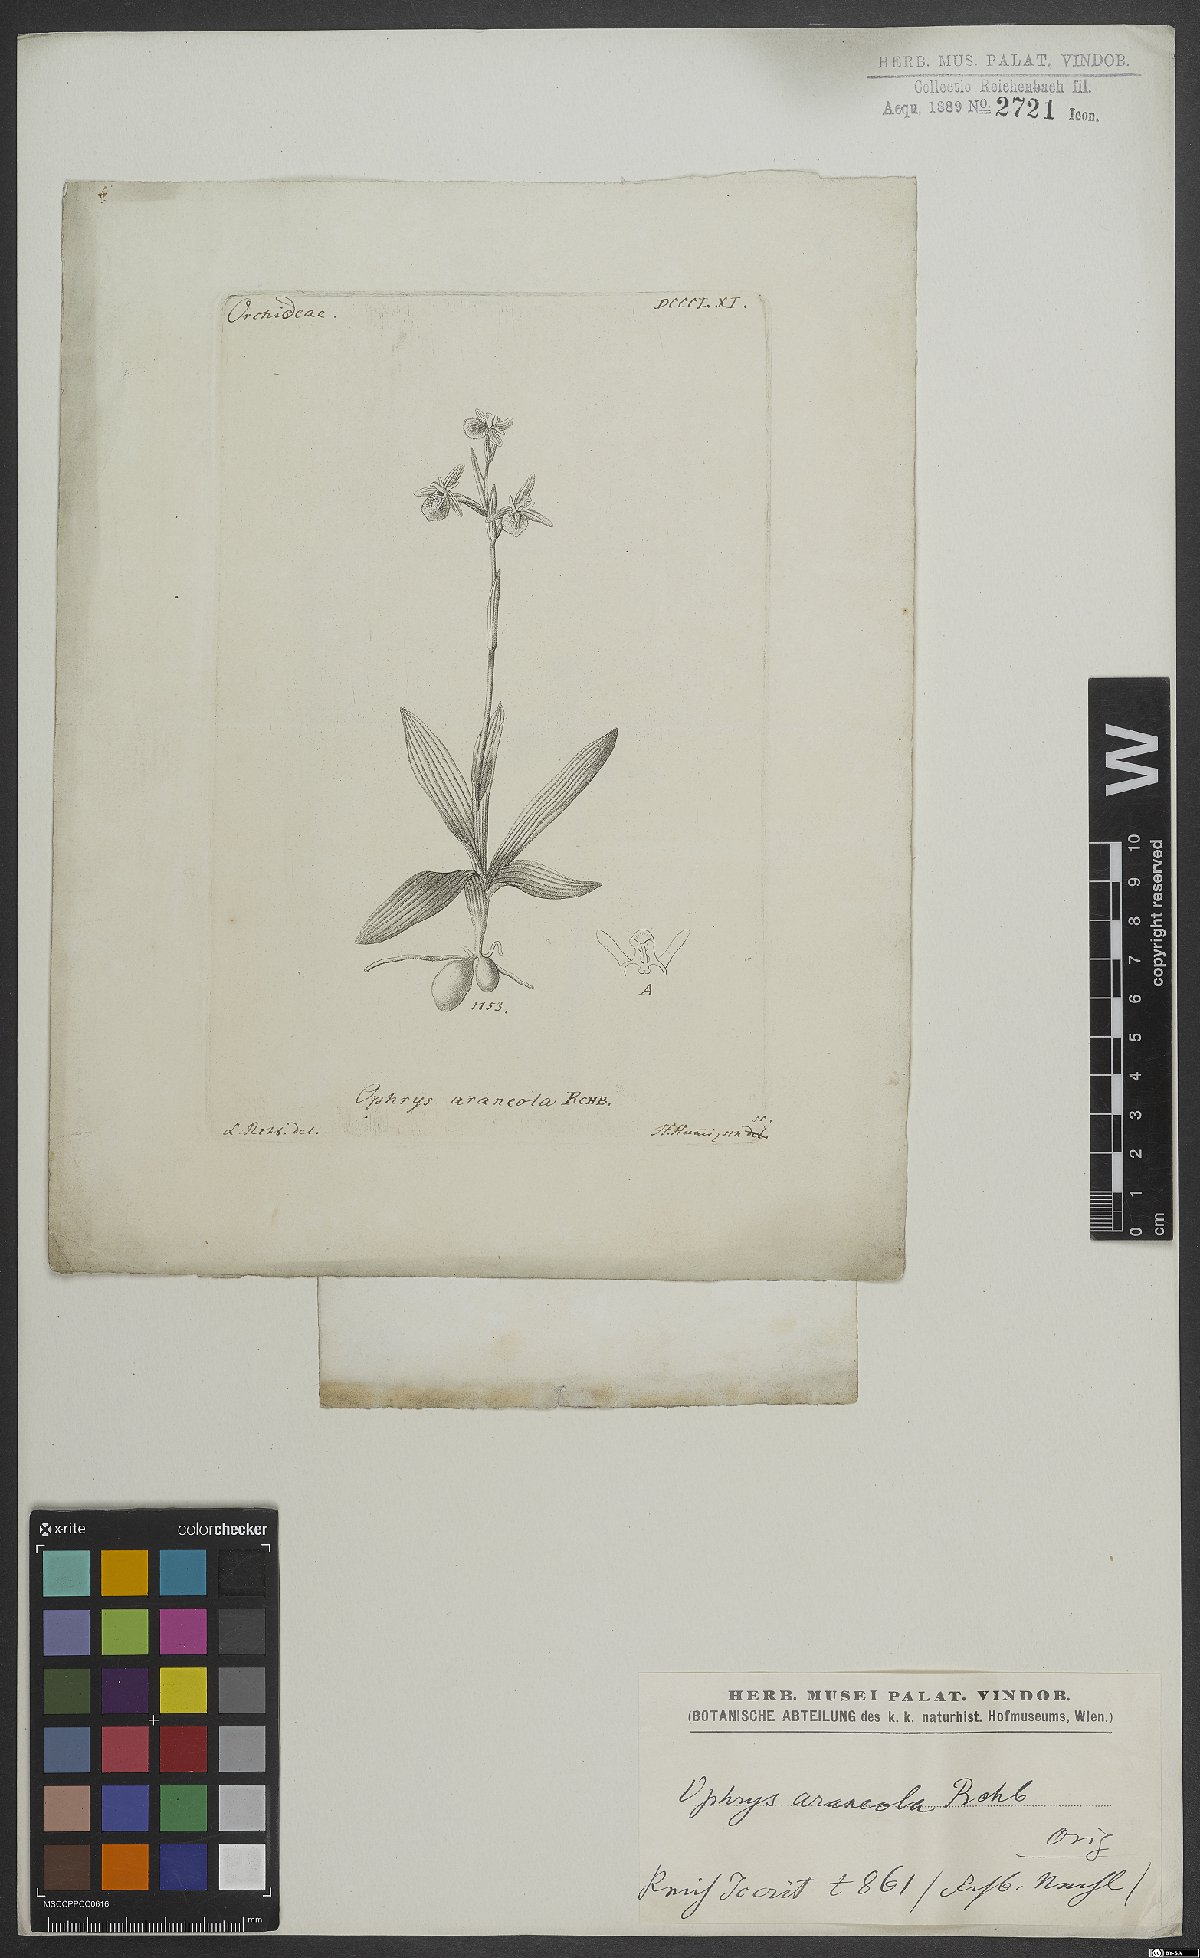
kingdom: Plantae
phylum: Tracheophyta
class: Liliopsida
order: Asparagales
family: Orchidaceae
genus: Ophrys
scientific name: Ophrys sphegodes
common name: Early spider-orchid
